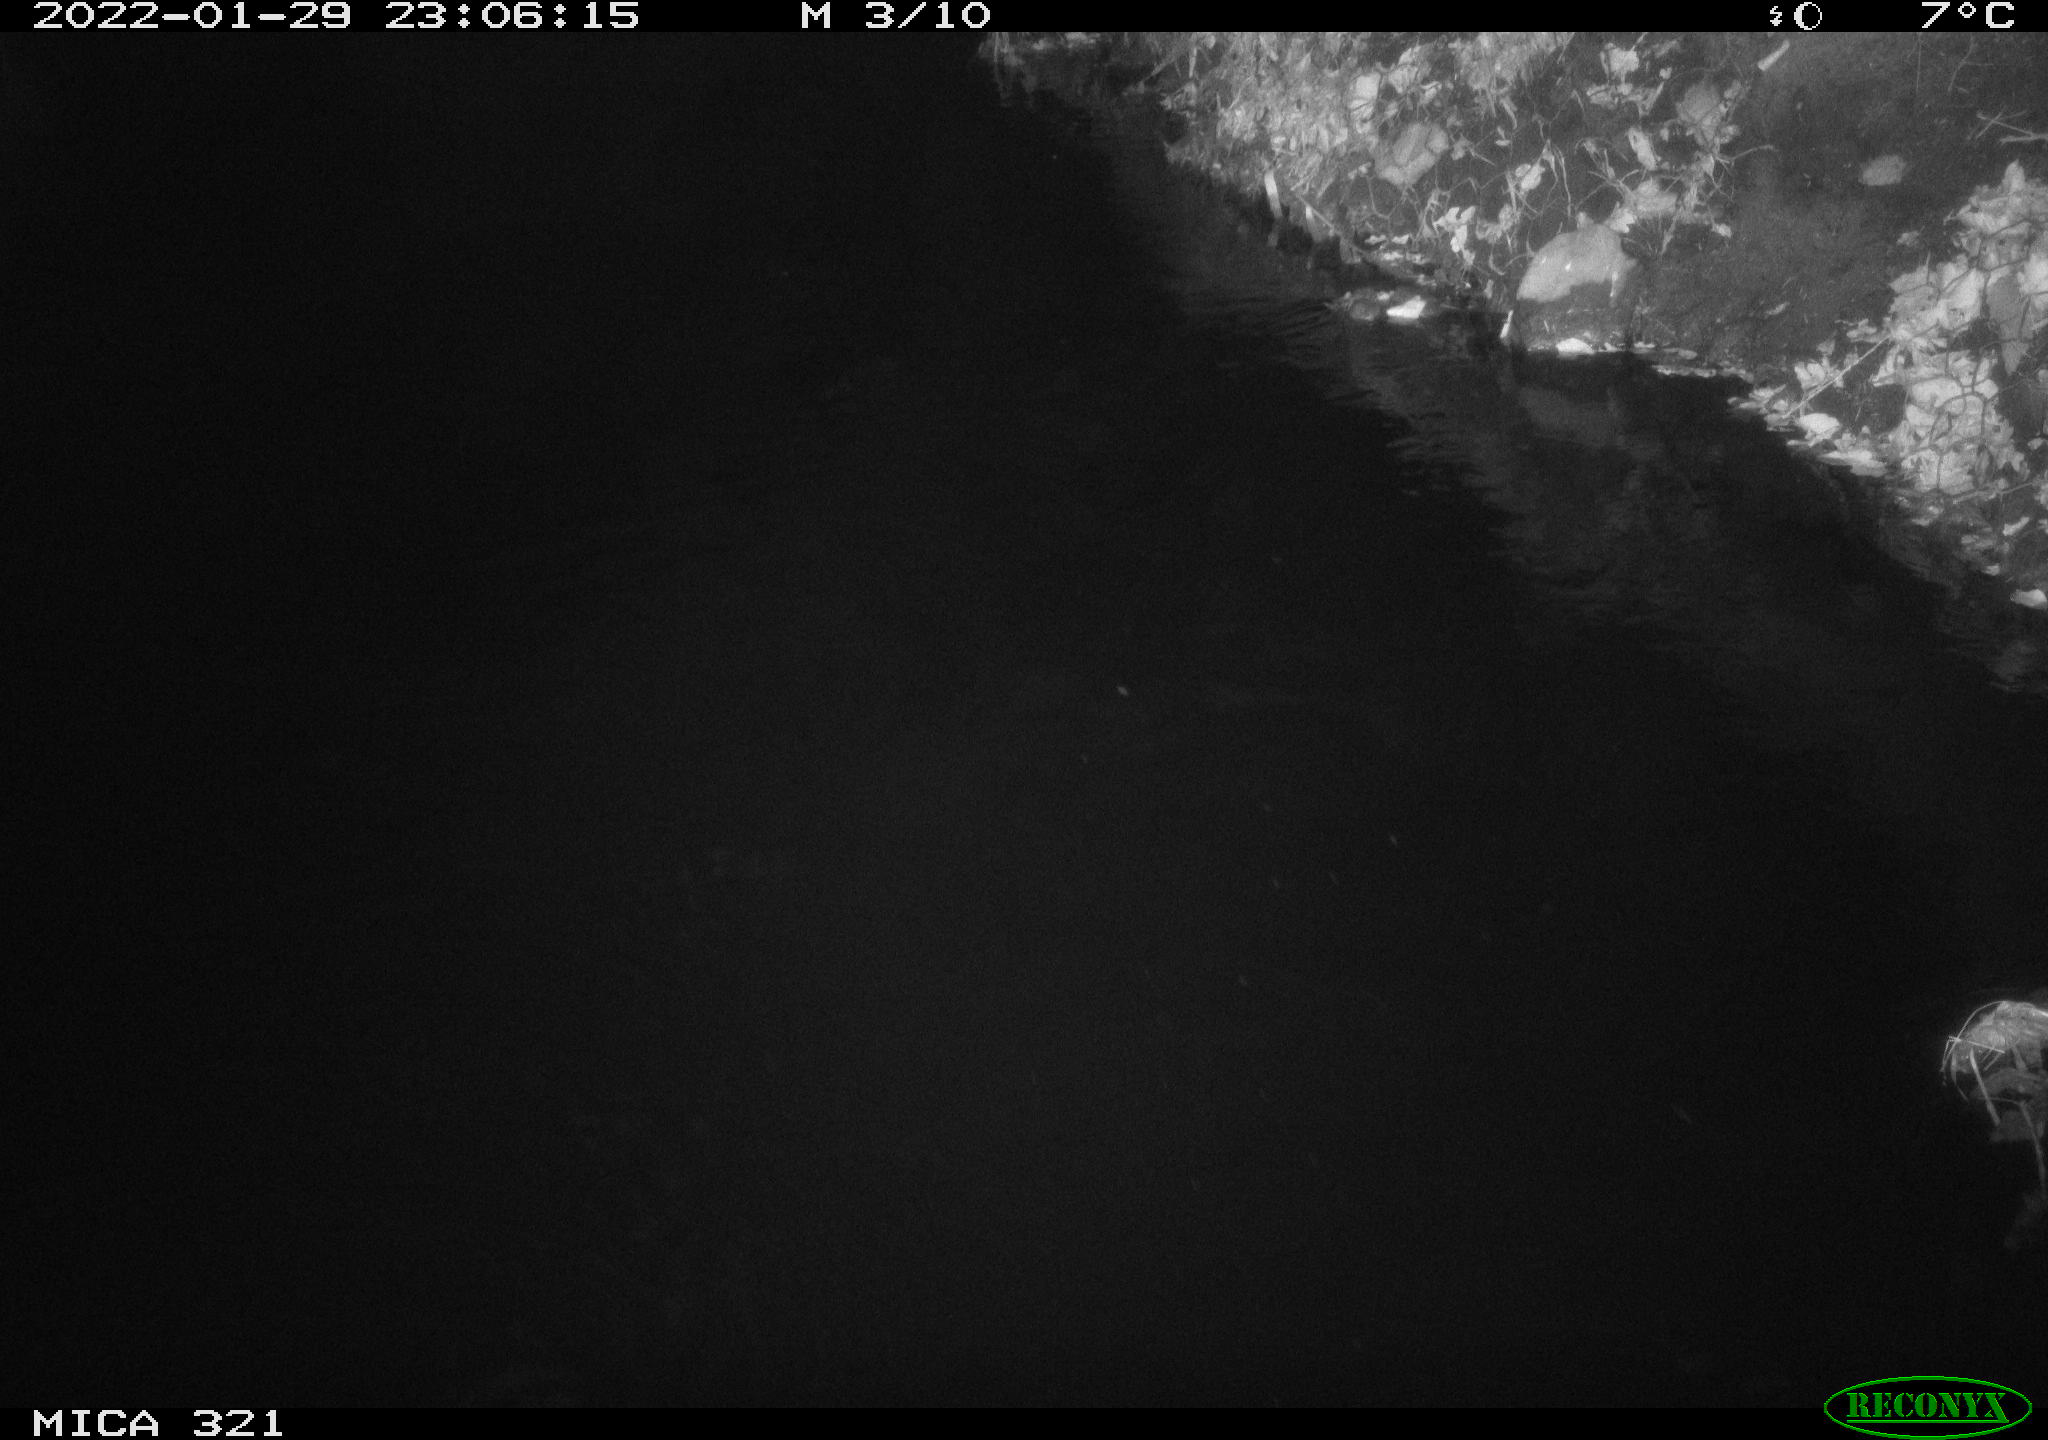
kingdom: Animalia
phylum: Chordata
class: Mammalia
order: Rodentia
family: Cricetidae
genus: Ondatra
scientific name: Ondatra zibethicus
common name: Muskrat
